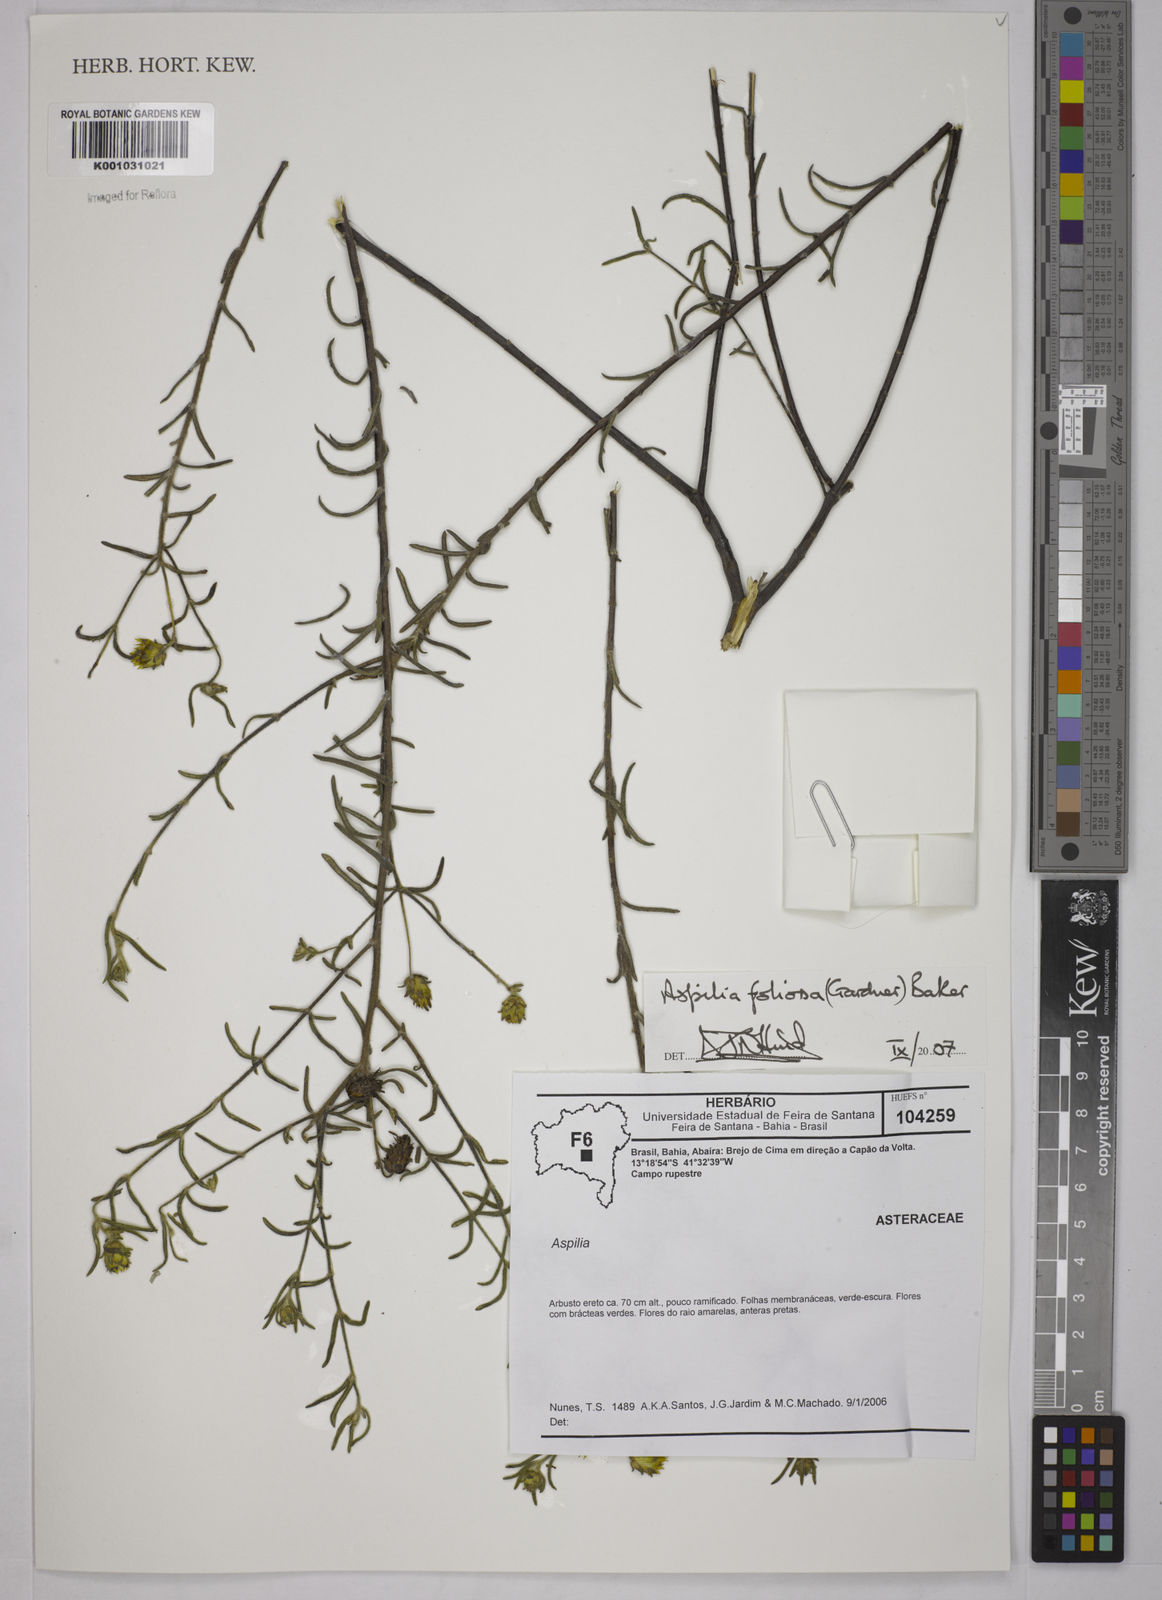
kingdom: Plantae
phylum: Tracheophyta
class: Magnoliopsida
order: Asterales
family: Asteraceae
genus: Aspilia
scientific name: Aspilia
